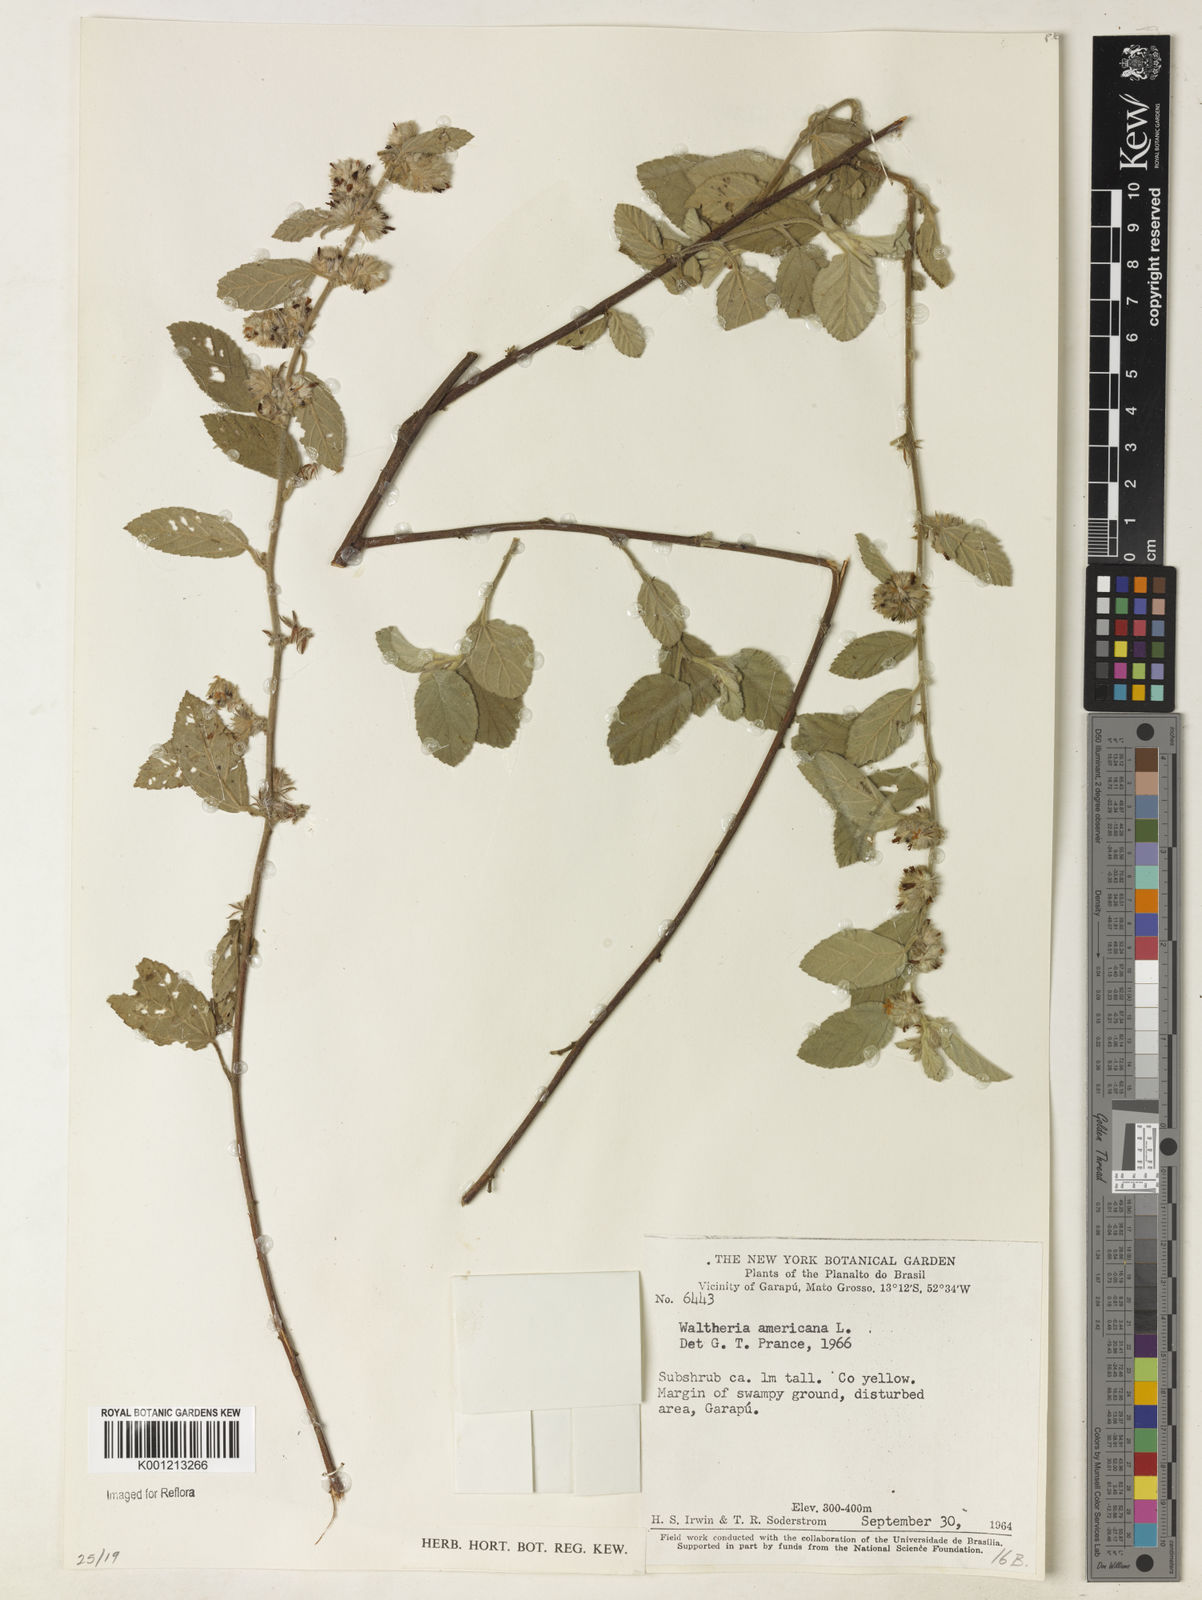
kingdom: Plantae
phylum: Tracheophyta
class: Magnoliopsida
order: Malvales
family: Malvaceae
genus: Waltheria
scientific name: Waltheria indica
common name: Leather-coat
